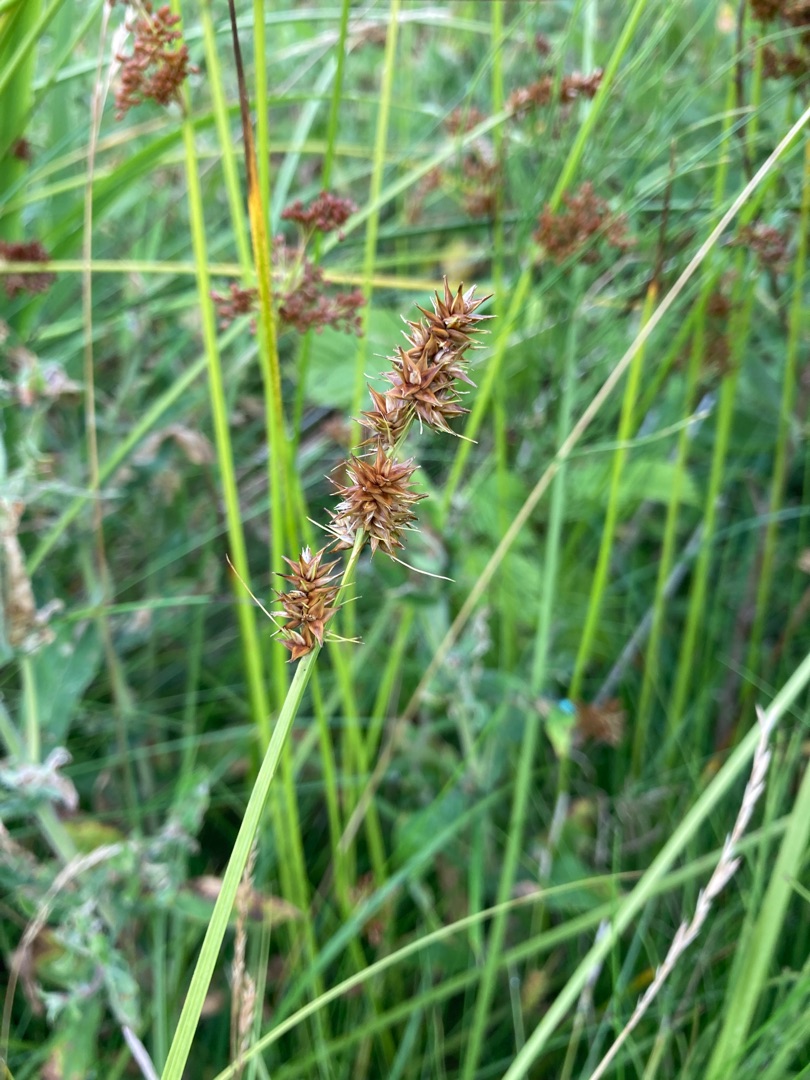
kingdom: Plantae
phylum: Tracheophyta
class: Liliopsida
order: Poales
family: Cyperaceae
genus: Carex
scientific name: Carex otrubae
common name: Sylt-star
